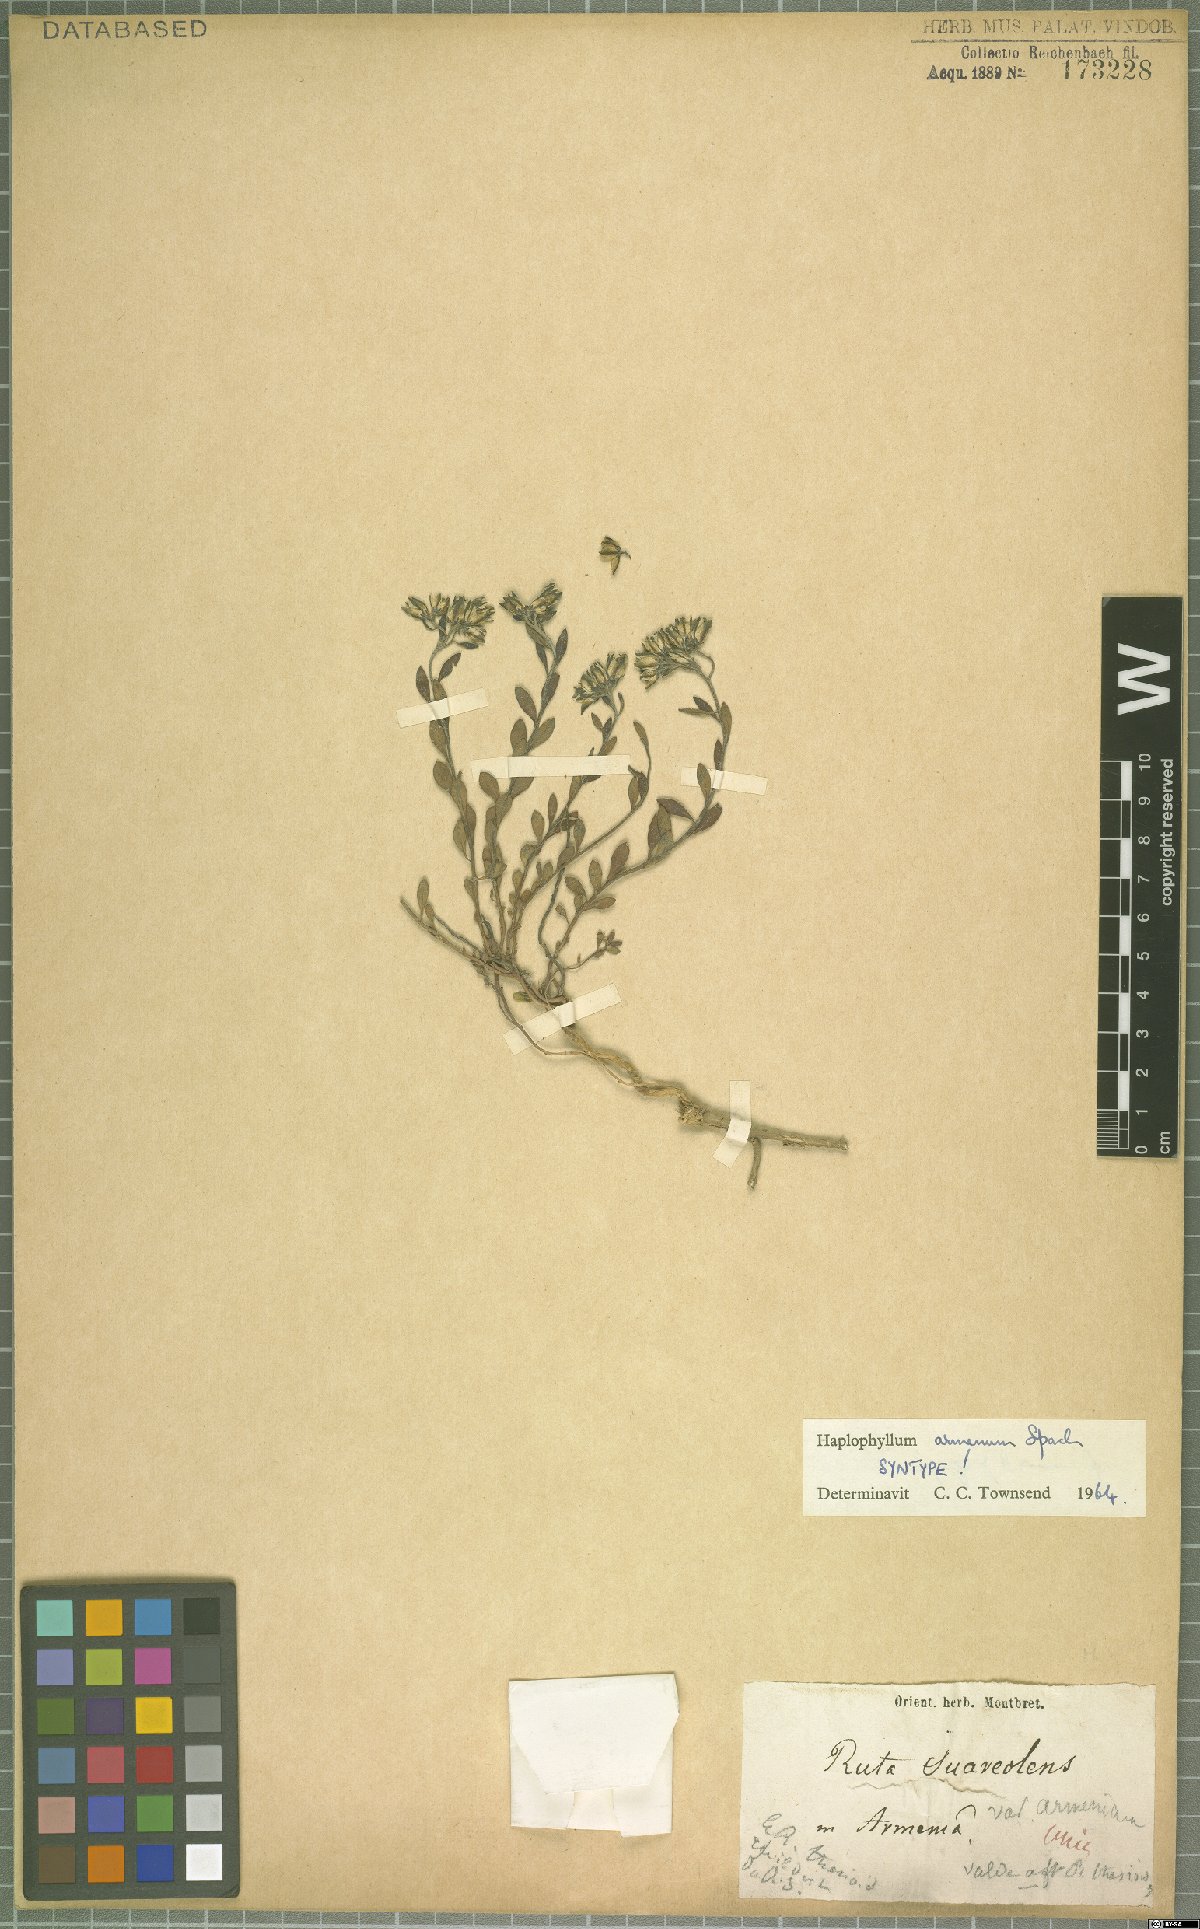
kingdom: Plantae
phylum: Tracheophyta
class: Magnoliopsida
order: Sapindales
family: Rutaceae
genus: Haplophyllum
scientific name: Haplophyllum armenum
